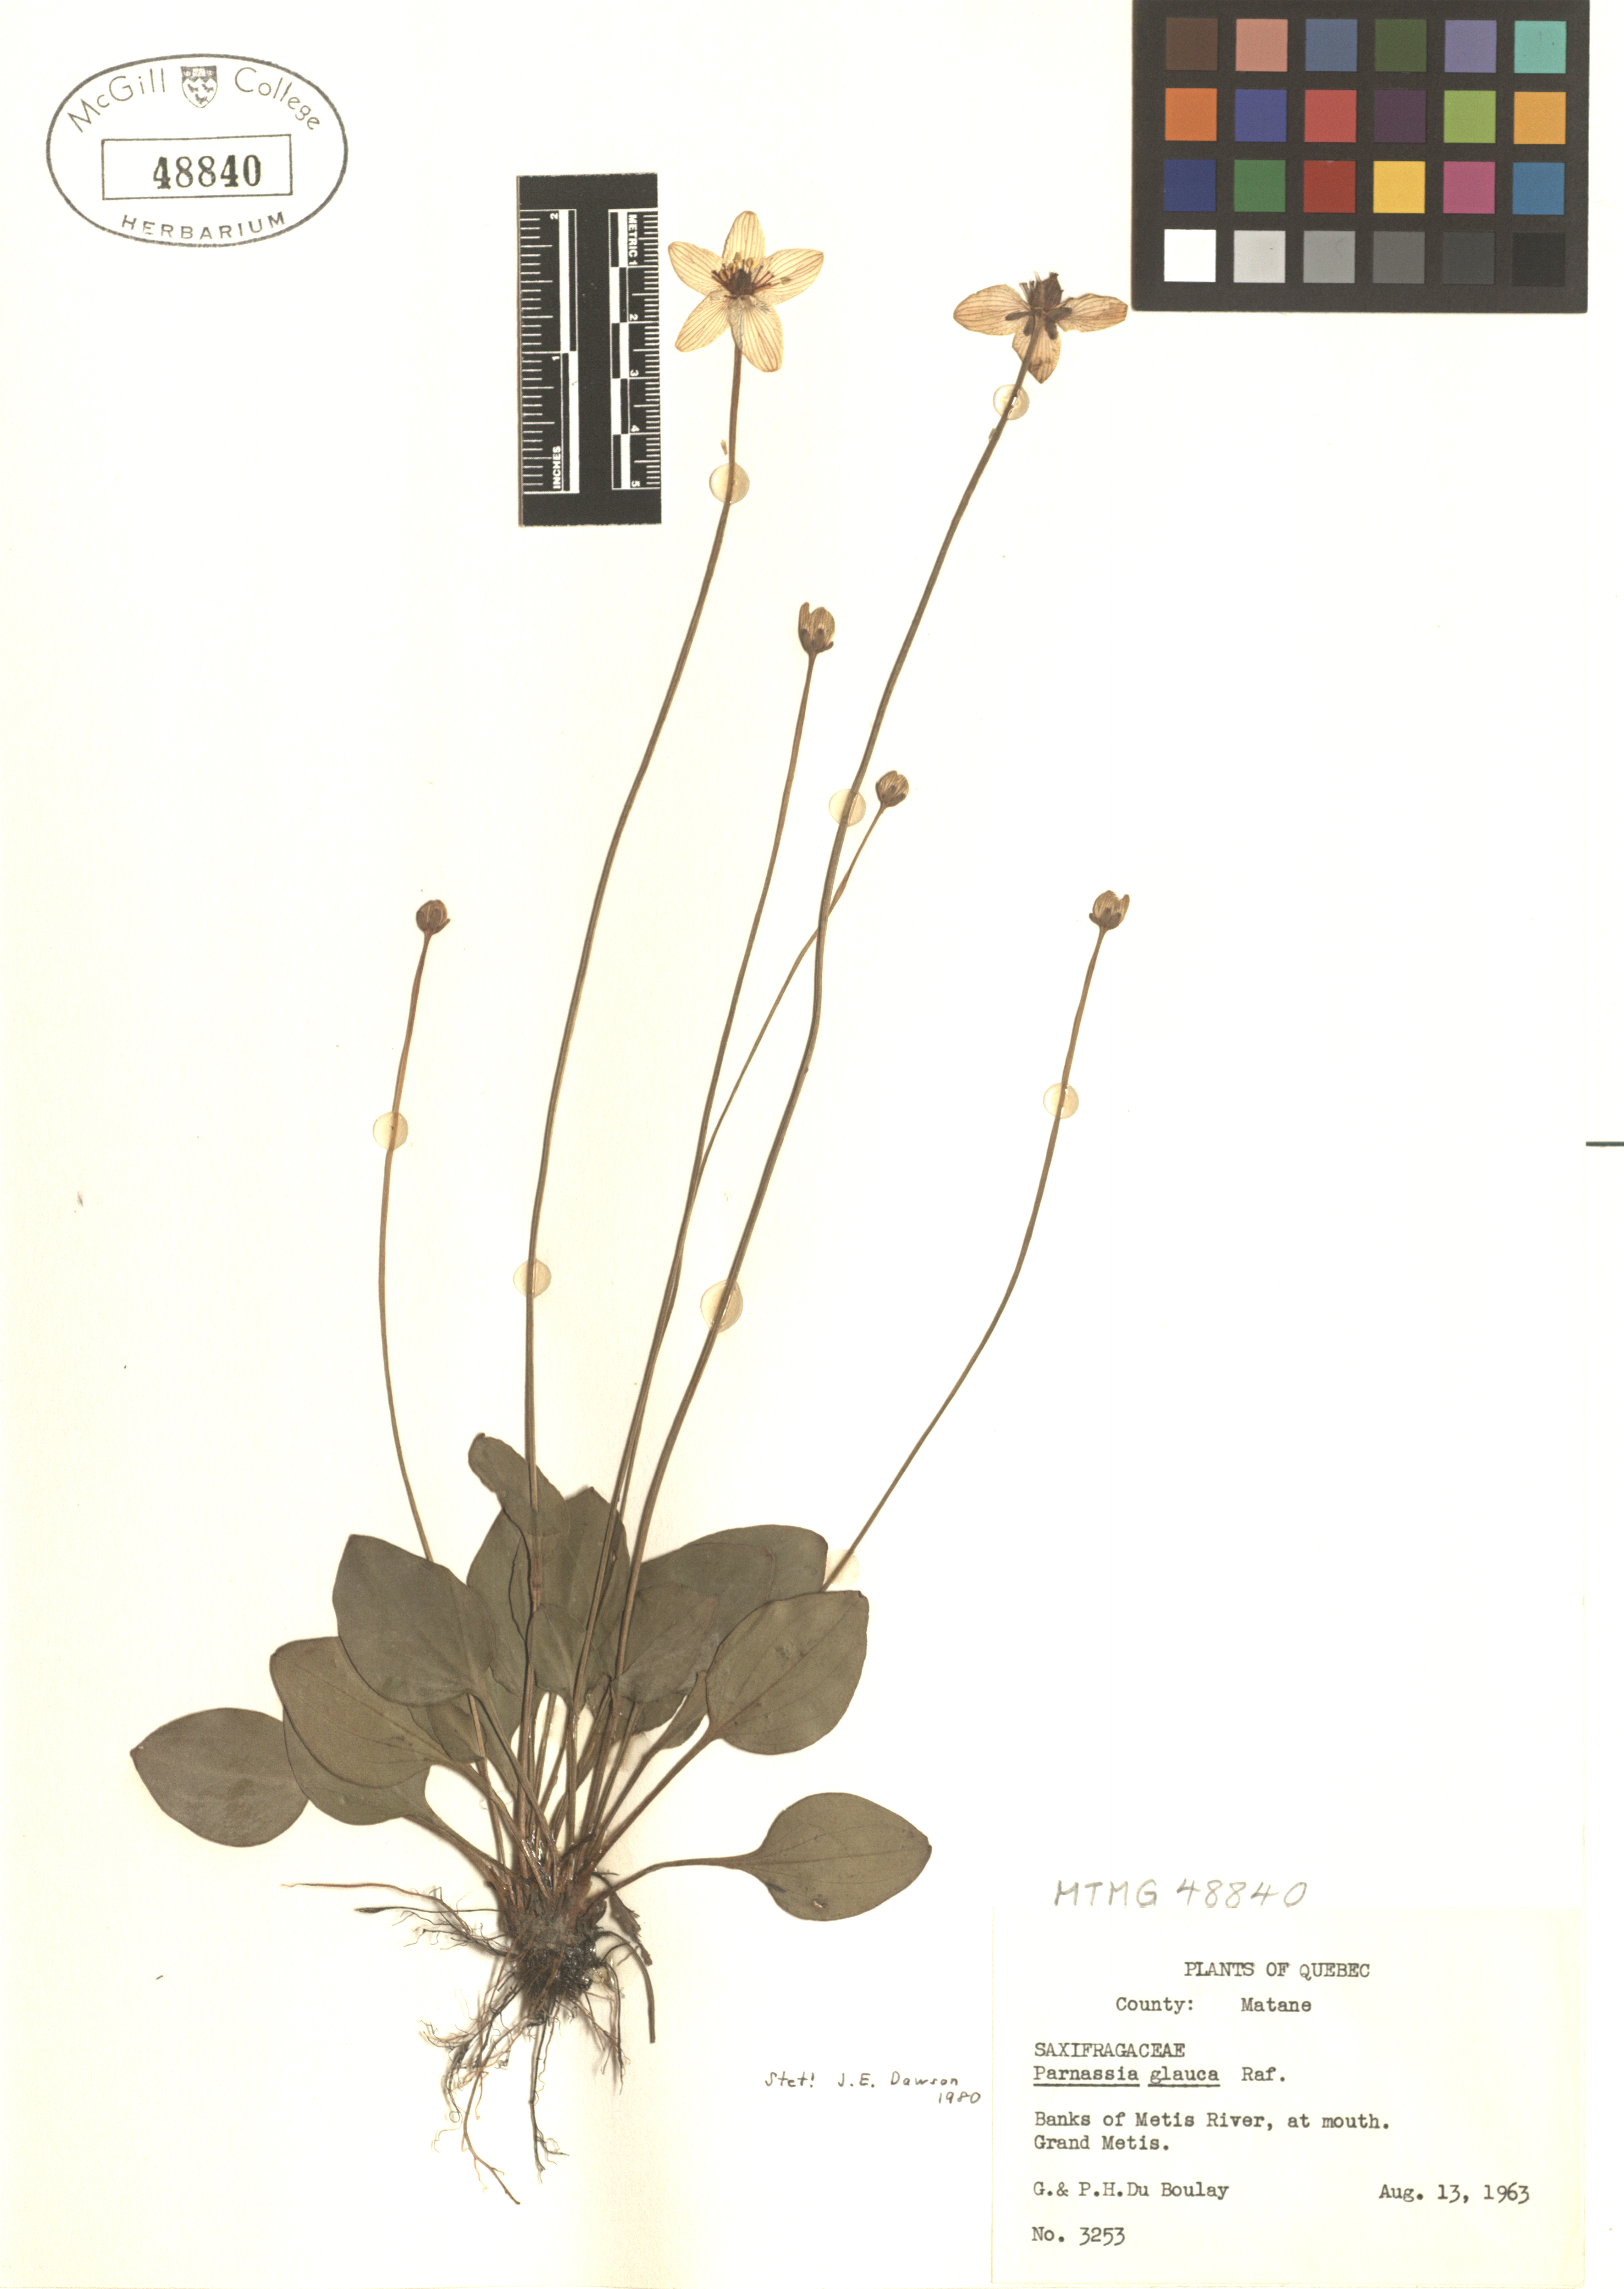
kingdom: Plantae
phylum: Tracheophyta
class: Magnoliopsida
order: Celastrales
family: Parnassiaceae
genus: Parnassia
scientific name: Parnassia glauca
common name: American grass-of-parnassus
